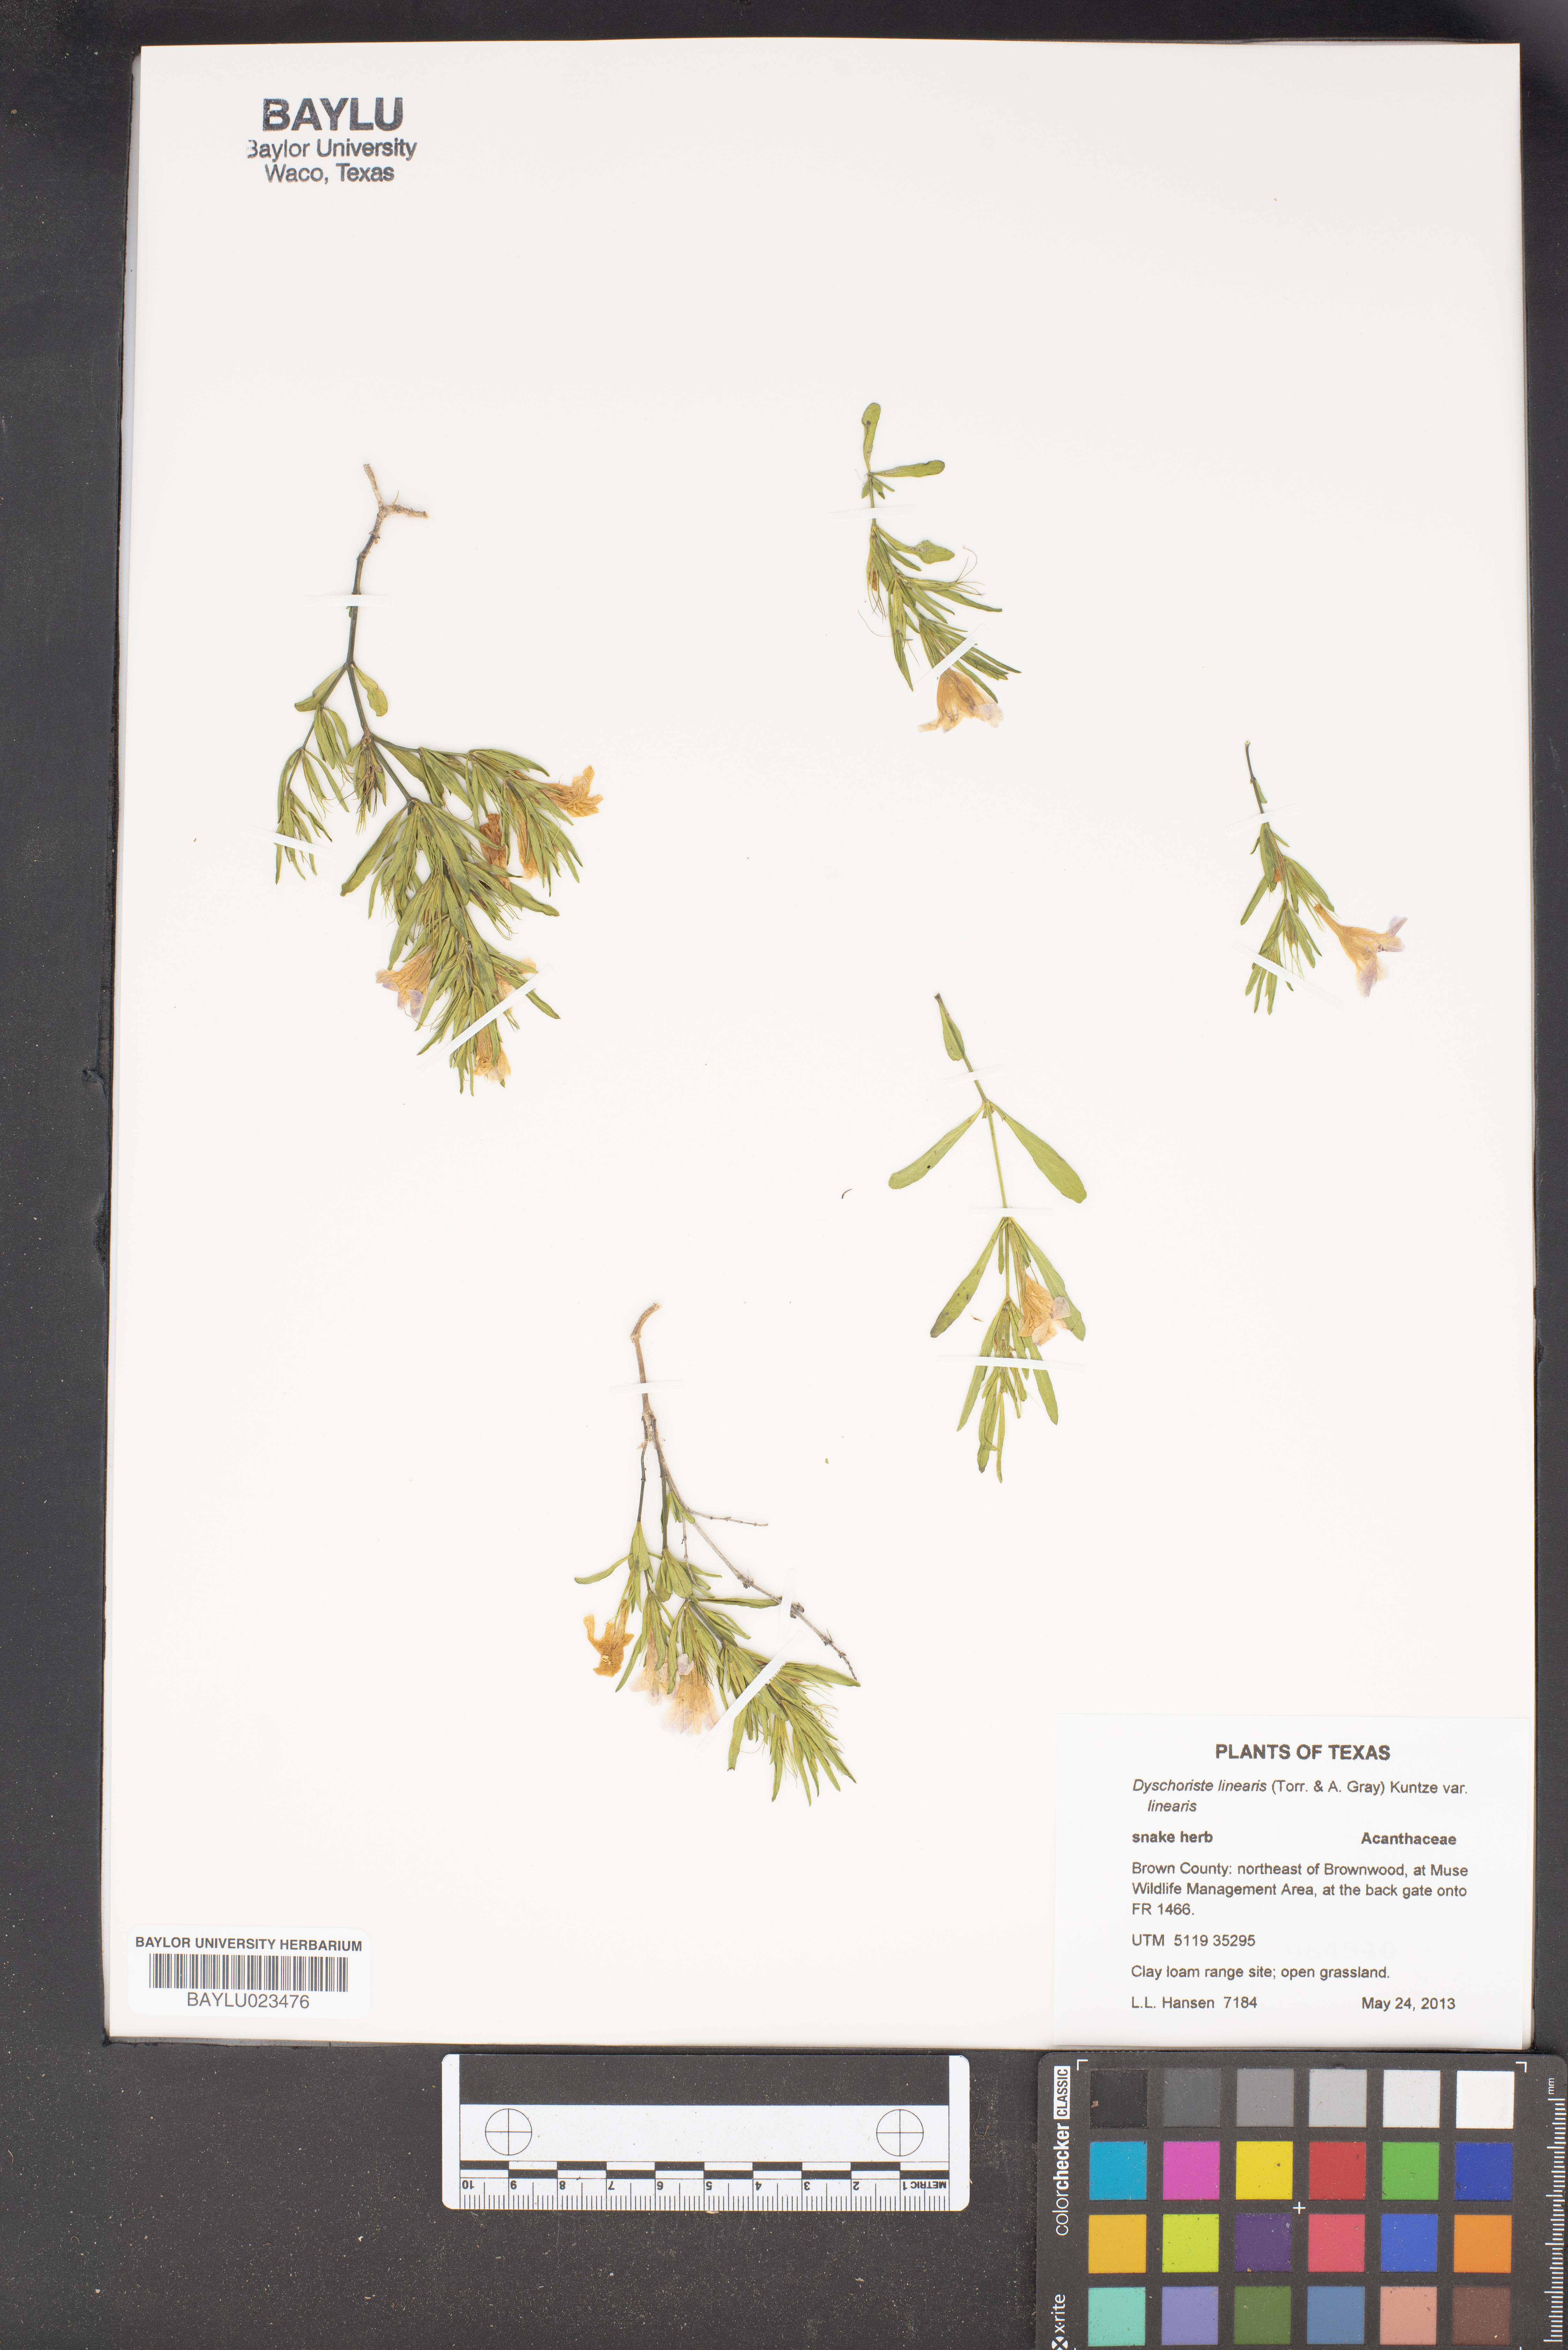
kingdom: Plantae
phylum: Tracheophyta
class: Magnoliopsida
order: Lamiales
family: Acanthaceae
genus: Dyschoriste
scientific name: Dyschoriste linearis
